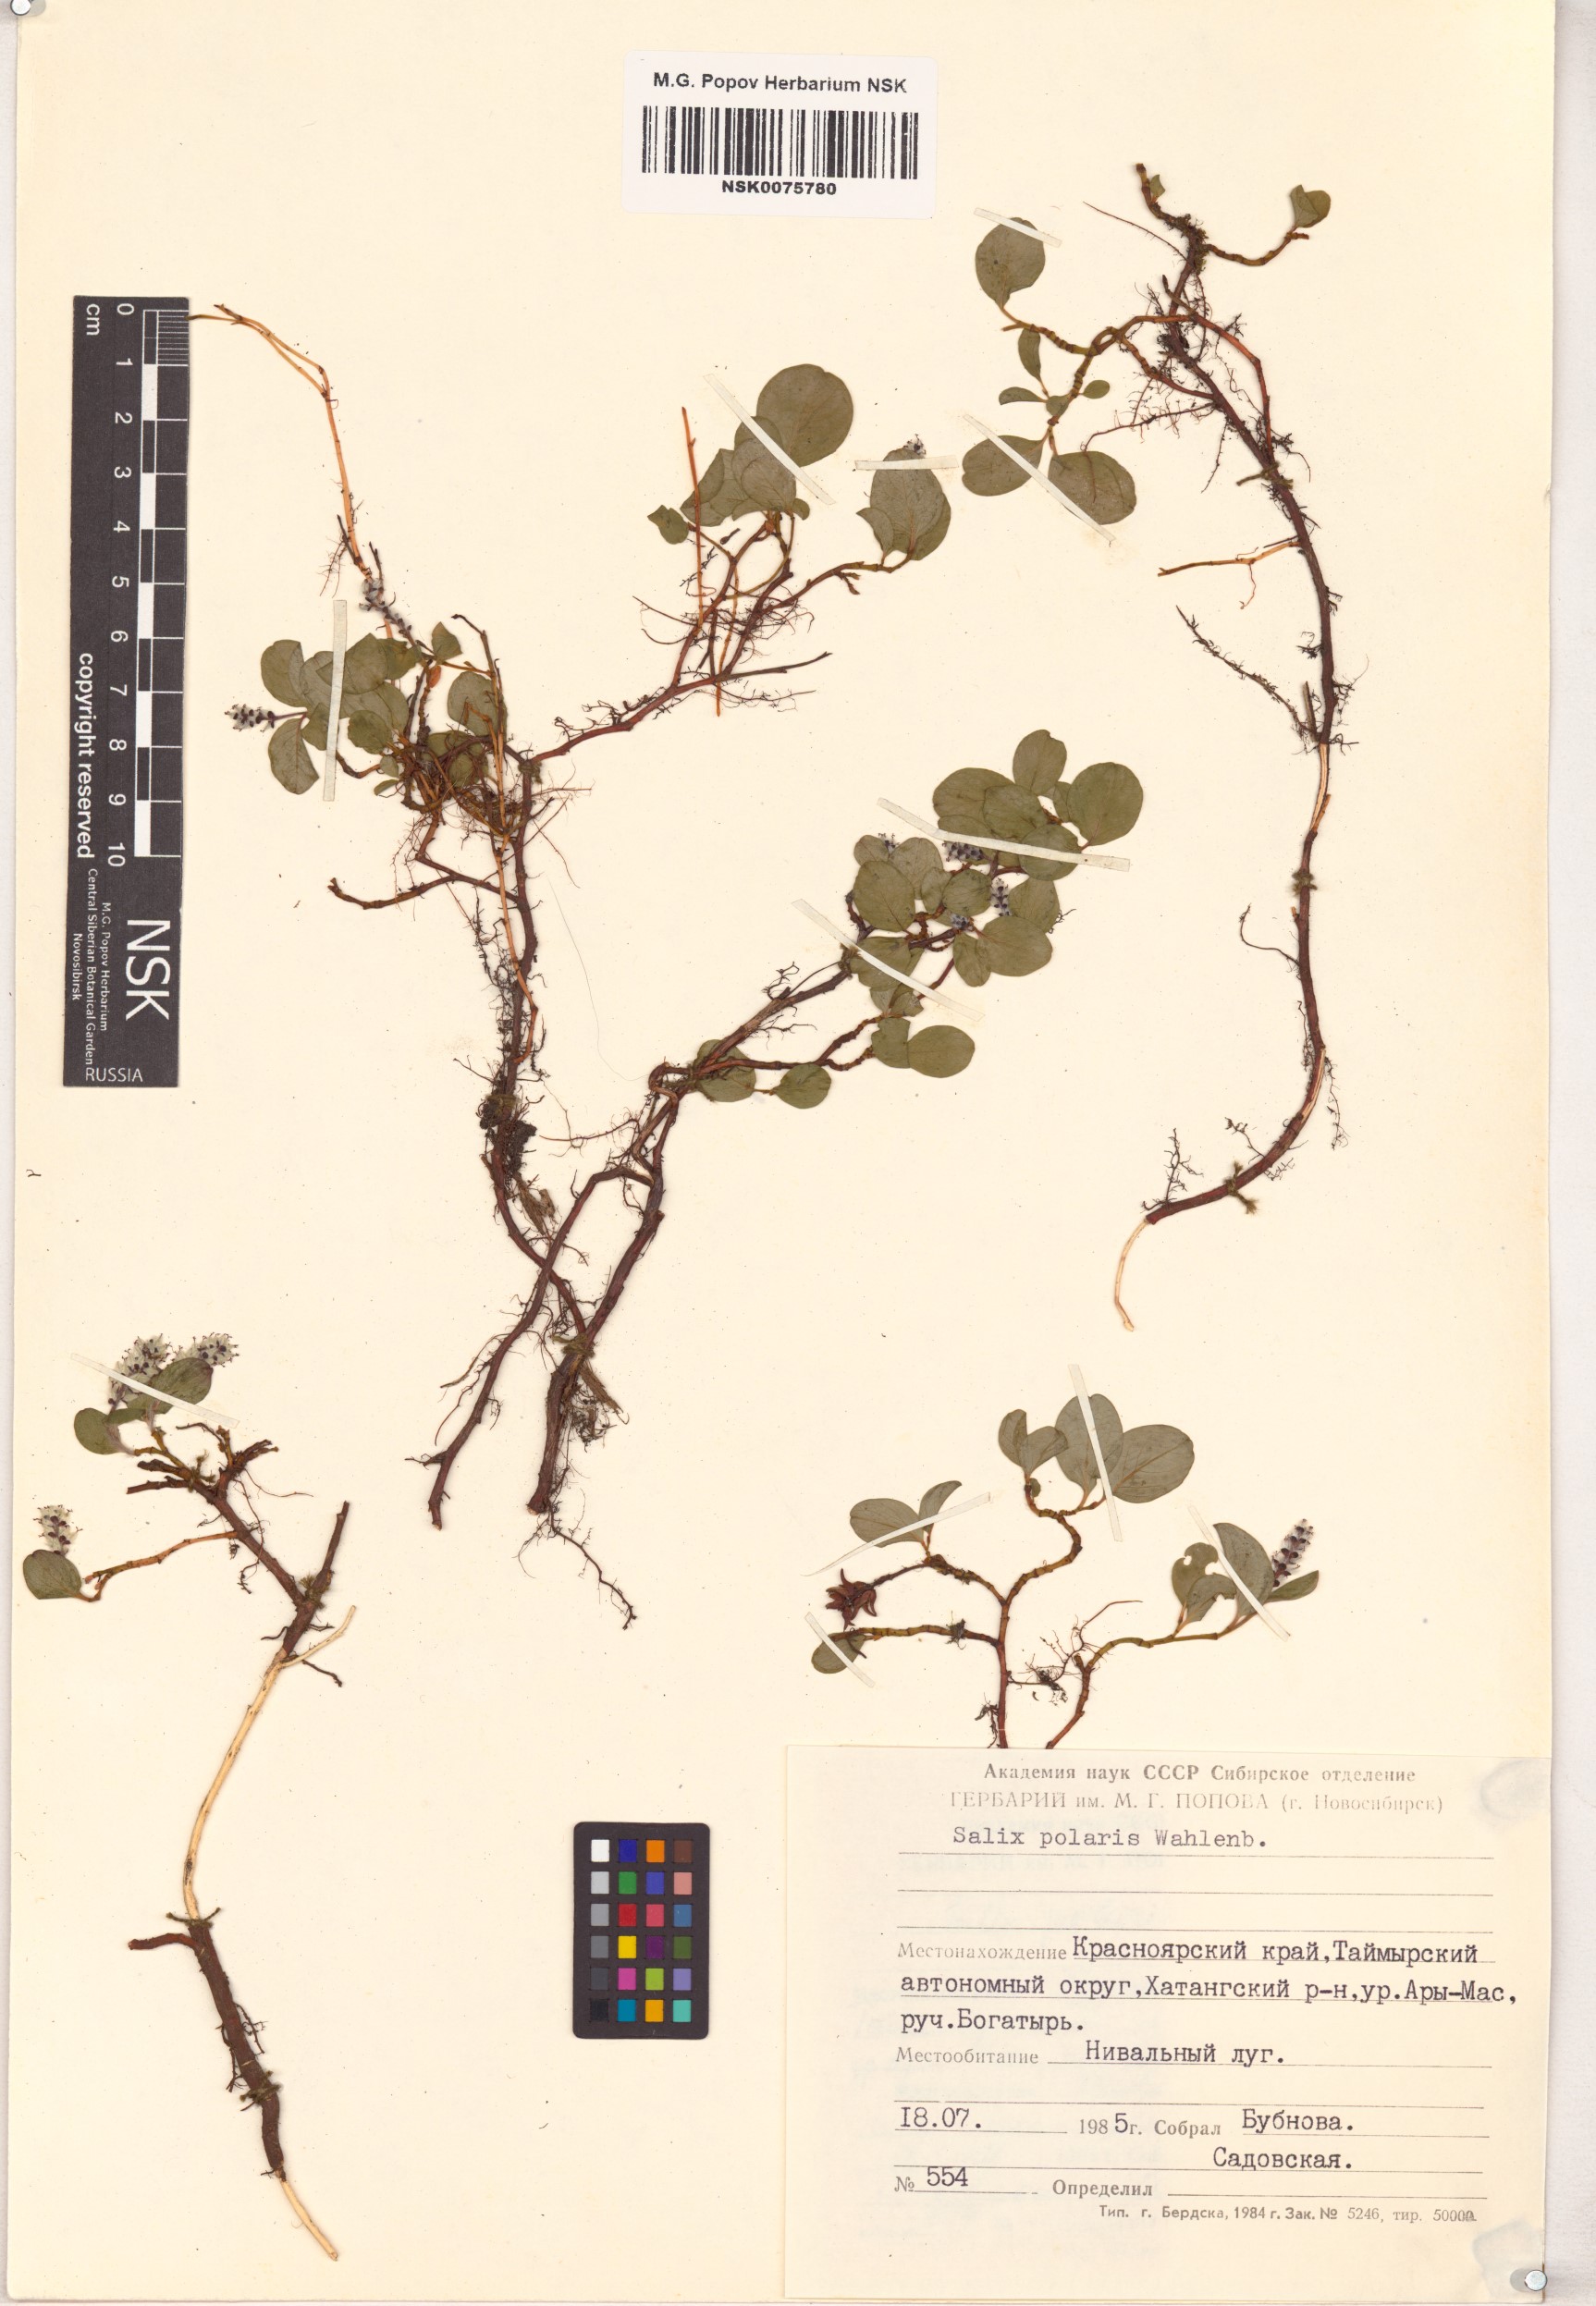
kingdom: Plantae
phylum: Tracheophyta
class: Magnoliopsida
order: Malpighiales
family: Salicaceae
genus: Salix
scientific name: Salix polaris
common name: Polar willow
